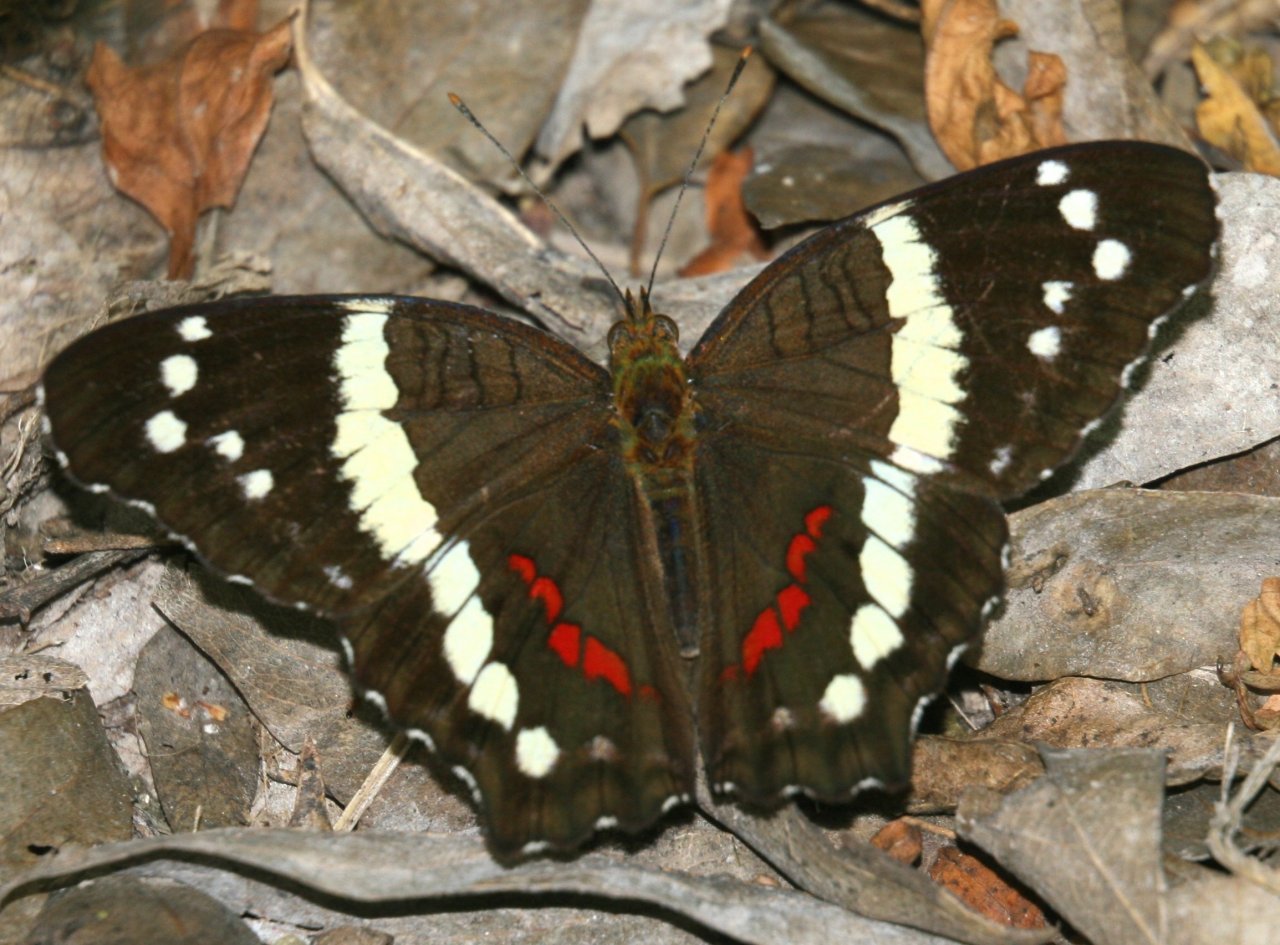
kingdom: Animalia
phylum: Arthropoda
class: Insecta
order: Lepidoptera
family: Nymphalidae
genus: Anartia
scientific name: Anartia fatima
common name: Banded Peacock
